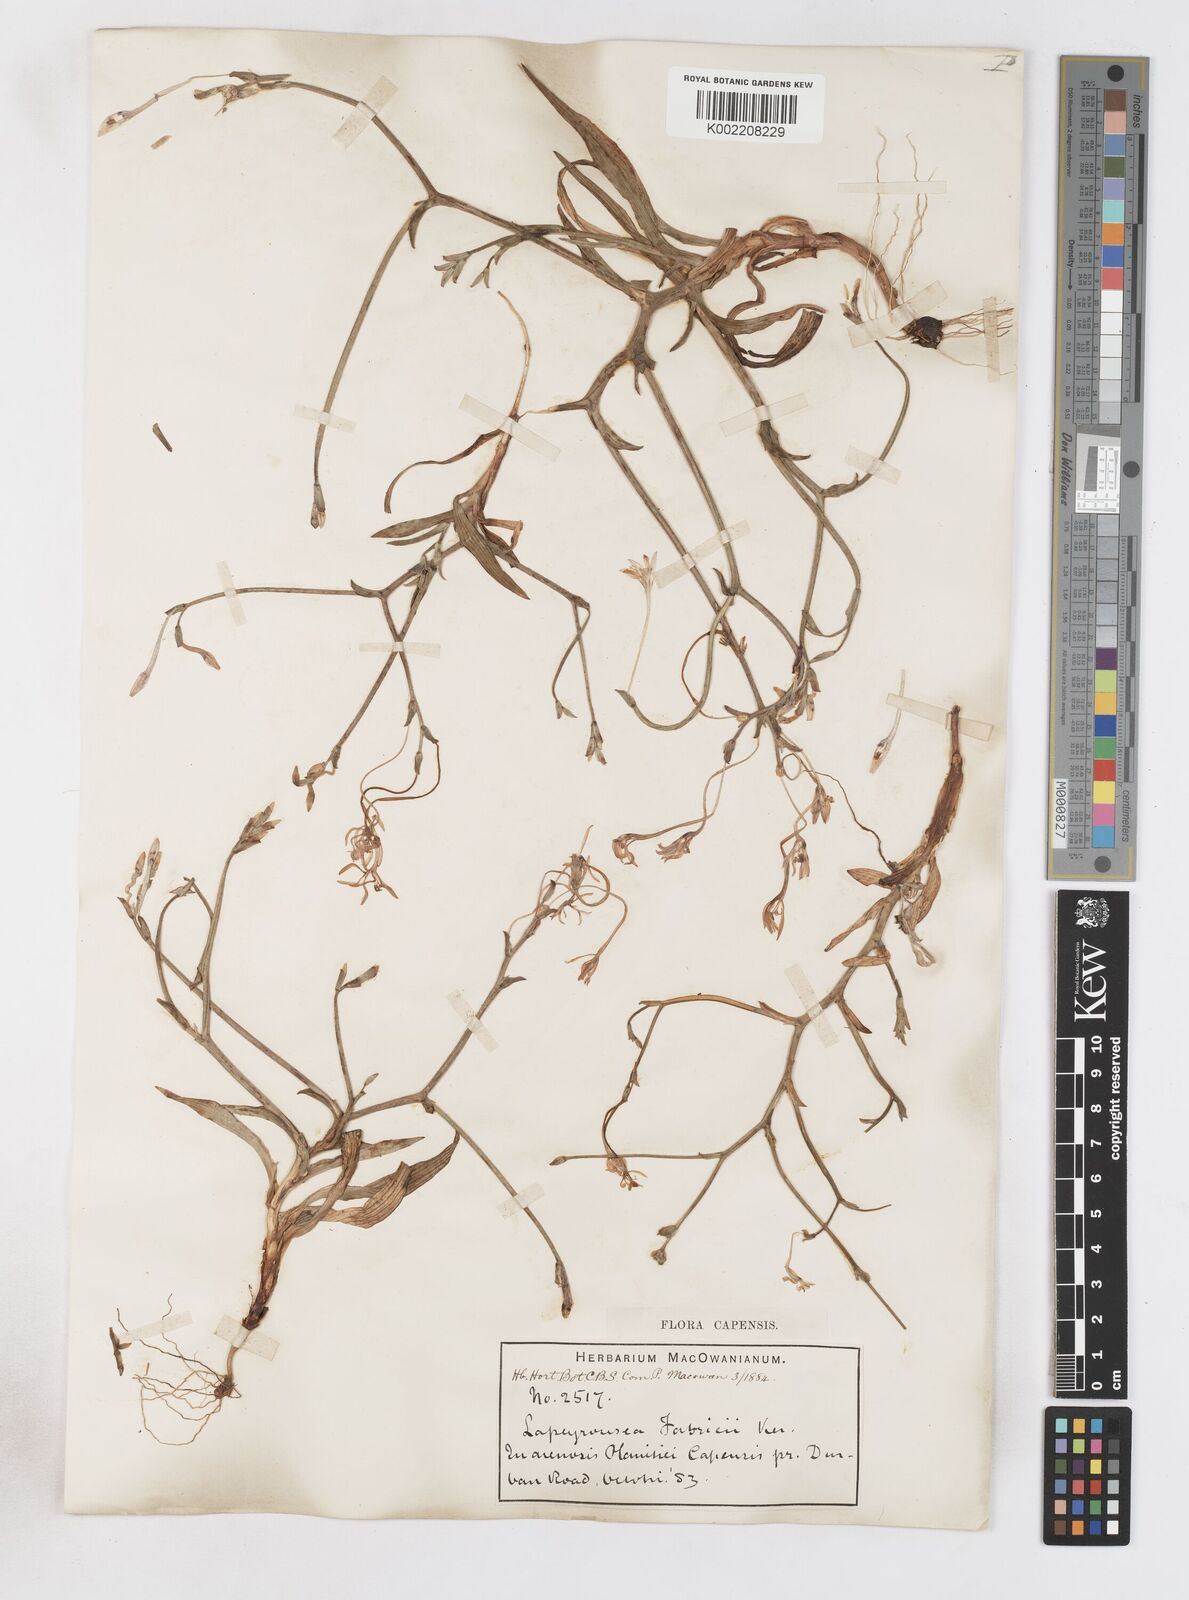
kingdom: Plantae
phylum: Tracheophyta
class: Liliopsida
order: Asparagales
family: Iridaceae
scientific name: Iridaceae
